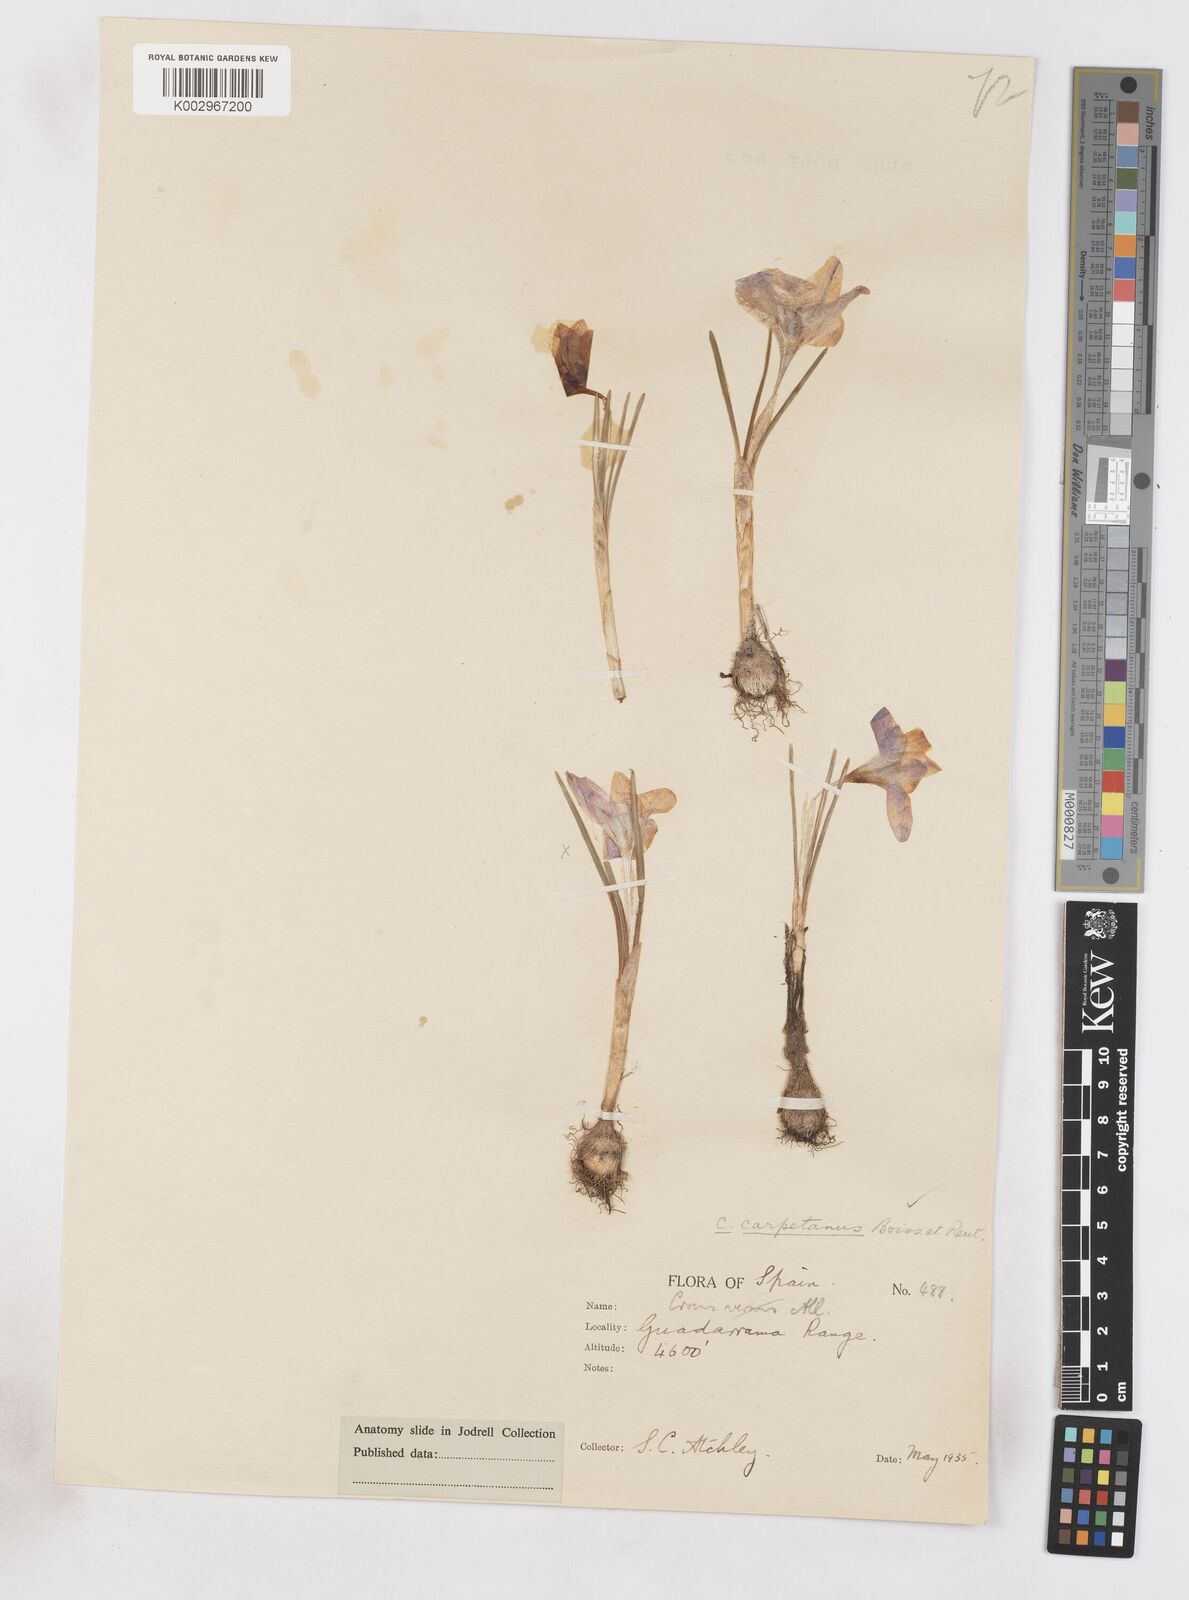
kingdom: Plantae
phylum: Tracheophyta
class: Liliopsida
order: Asparagales
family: Iridaceae
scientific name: Iridaceae
